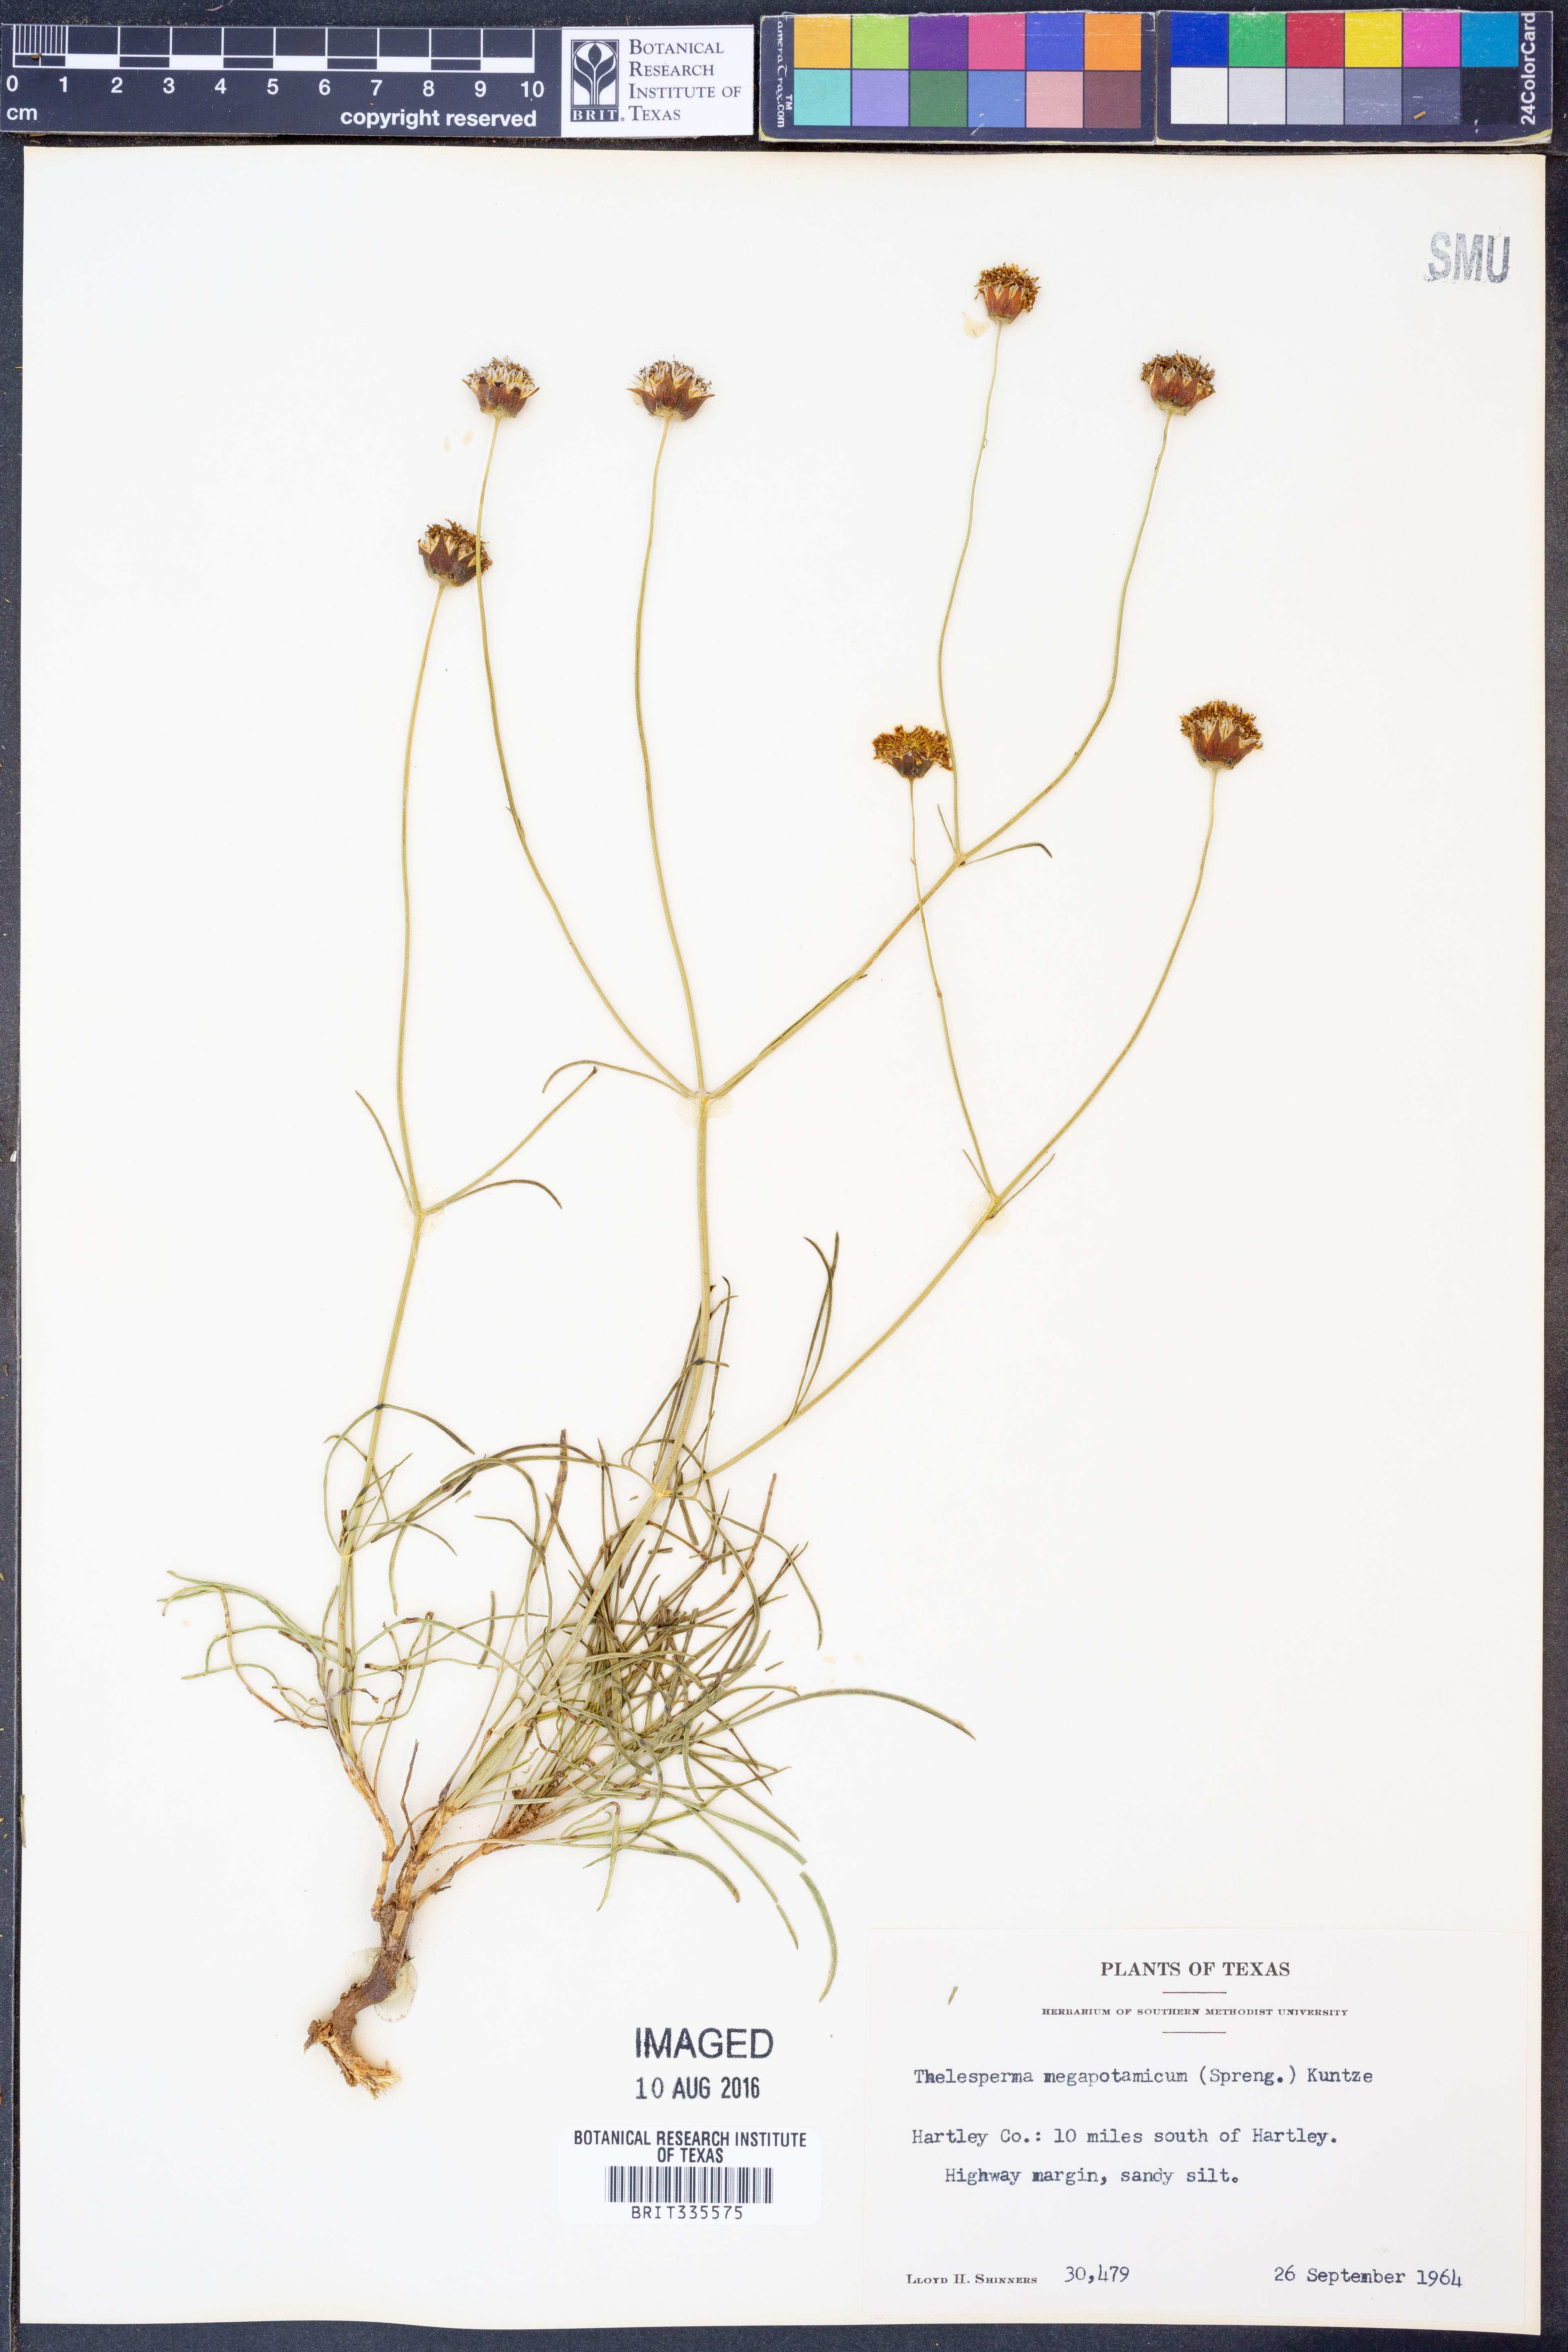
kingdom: Plantae
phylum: Tracheophyta
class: Magnoliopsida
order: Asterales
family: Asteraceae
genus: Thelesperma
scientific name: Thelesperma megapotamicum
